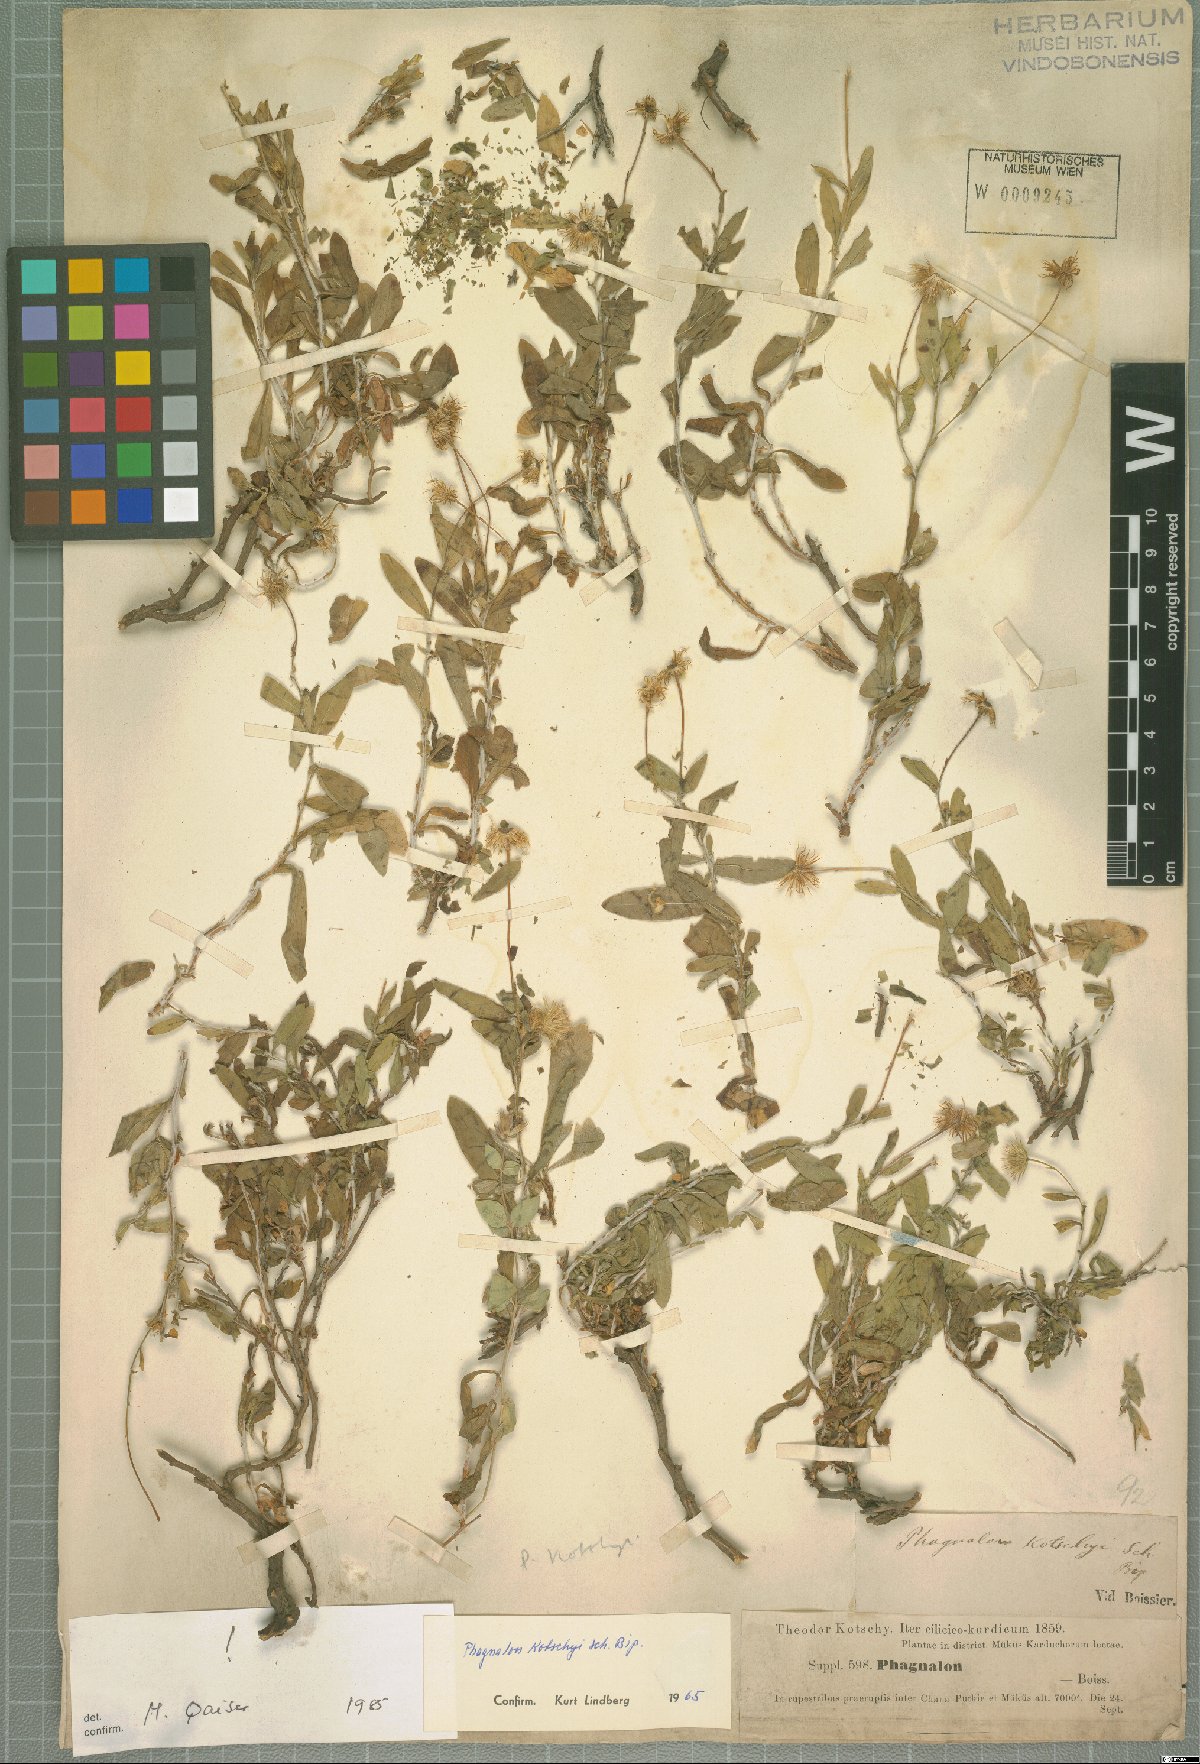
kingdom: Plantae
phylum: Tracheophyta
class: Magnoliopsida
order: Asterales
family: Asteraceae
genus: Phagnalon
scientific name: Phagnalon kotschyi
